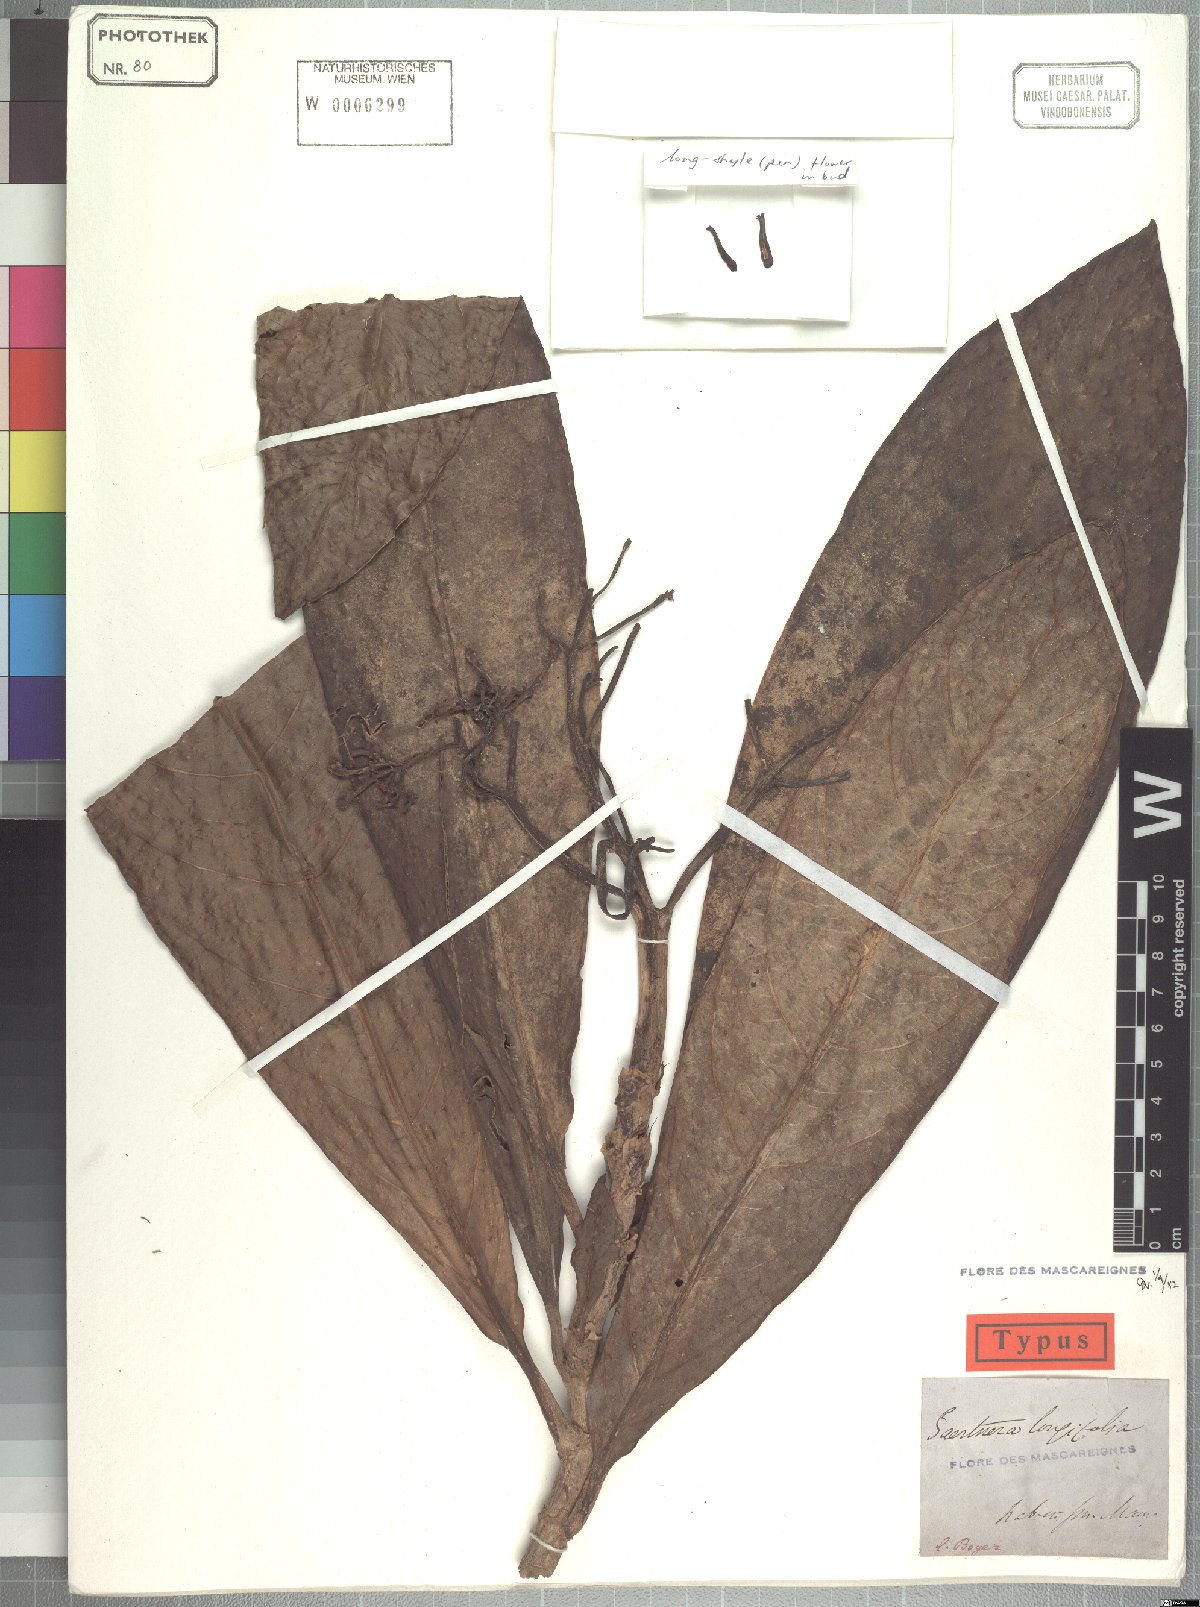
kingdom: Plantae
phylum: Tracheophyta
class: Magnoliopsida
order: Gentianales
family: Rubiaceae
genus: Gaertnera
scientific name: Gaertnera longifolia
